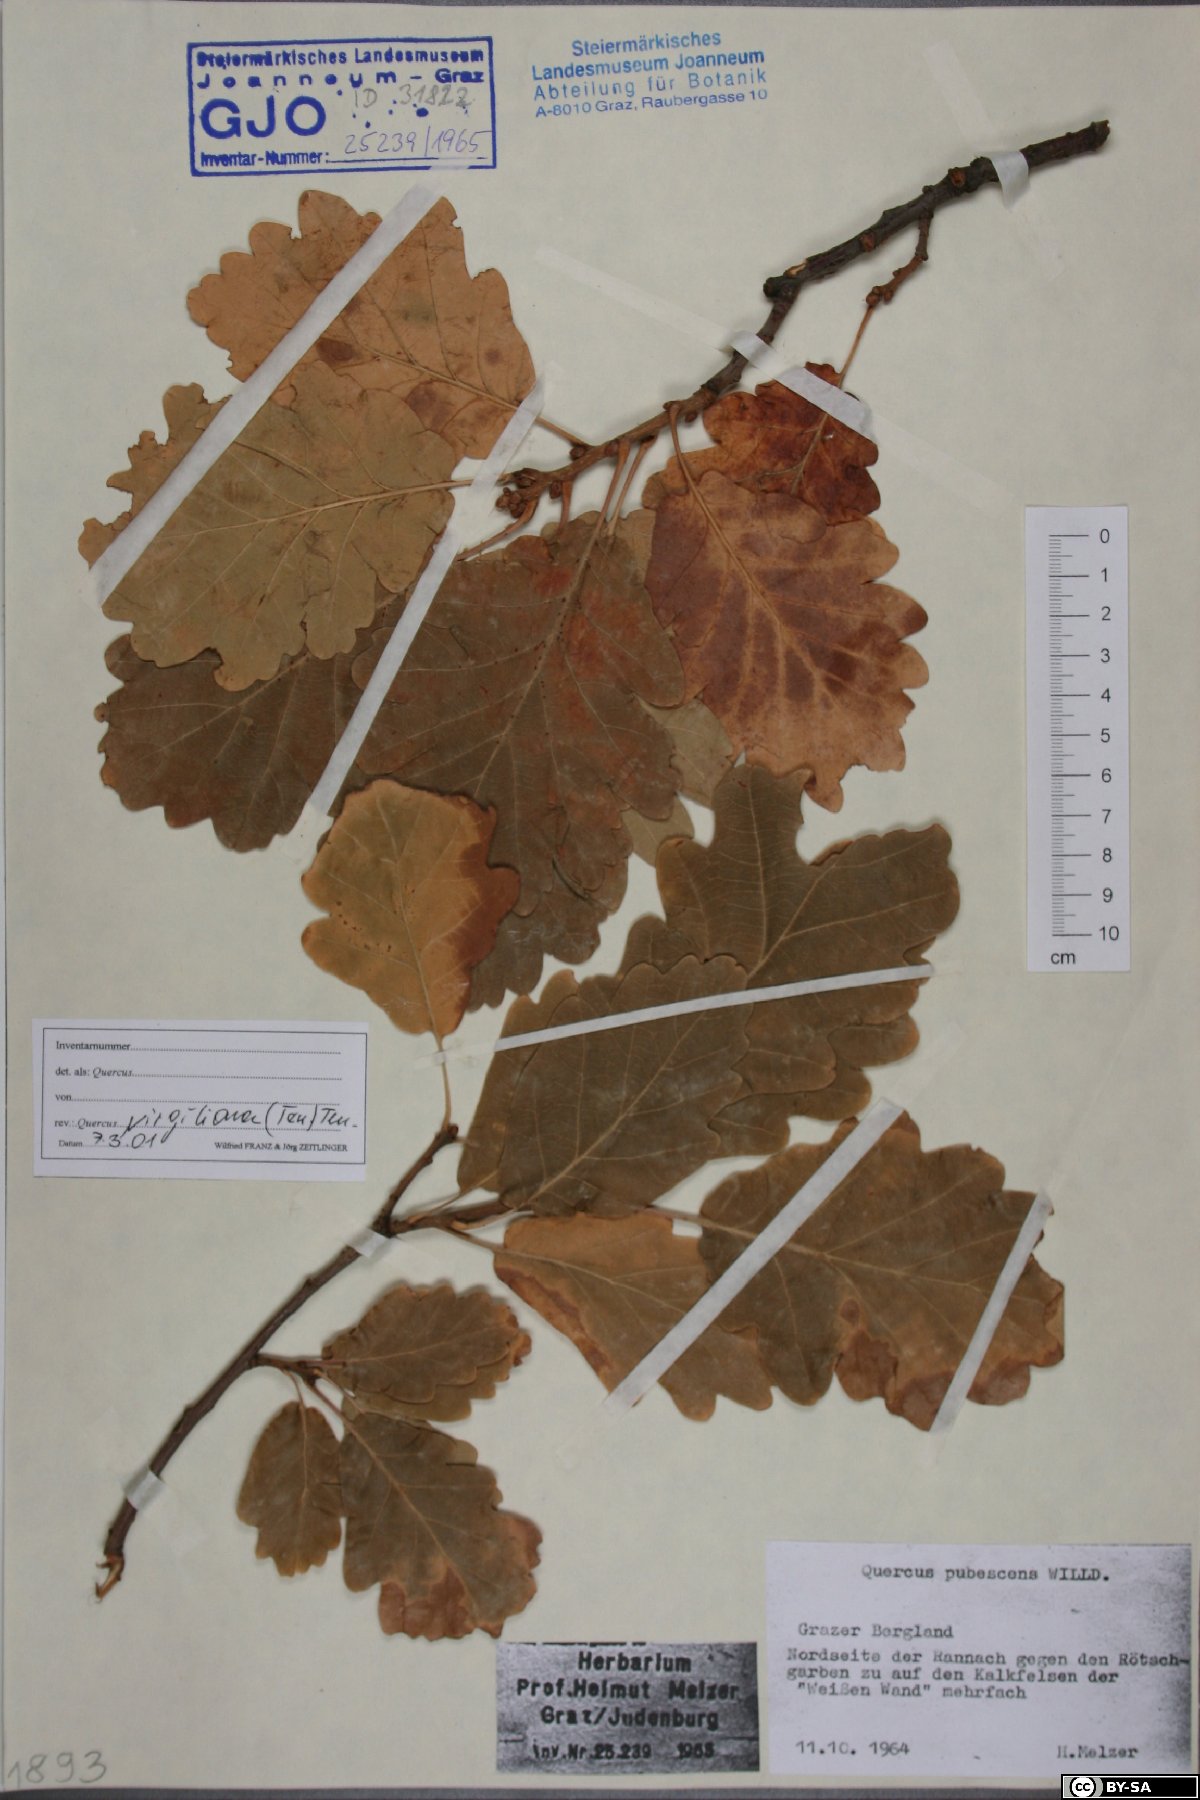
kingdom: Plantae
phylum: Tracheophyta
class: Magnoliopsida
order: Fagales
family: Fagaceae
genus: Quercus
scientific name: Quercus pubescens
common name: Downy oak
